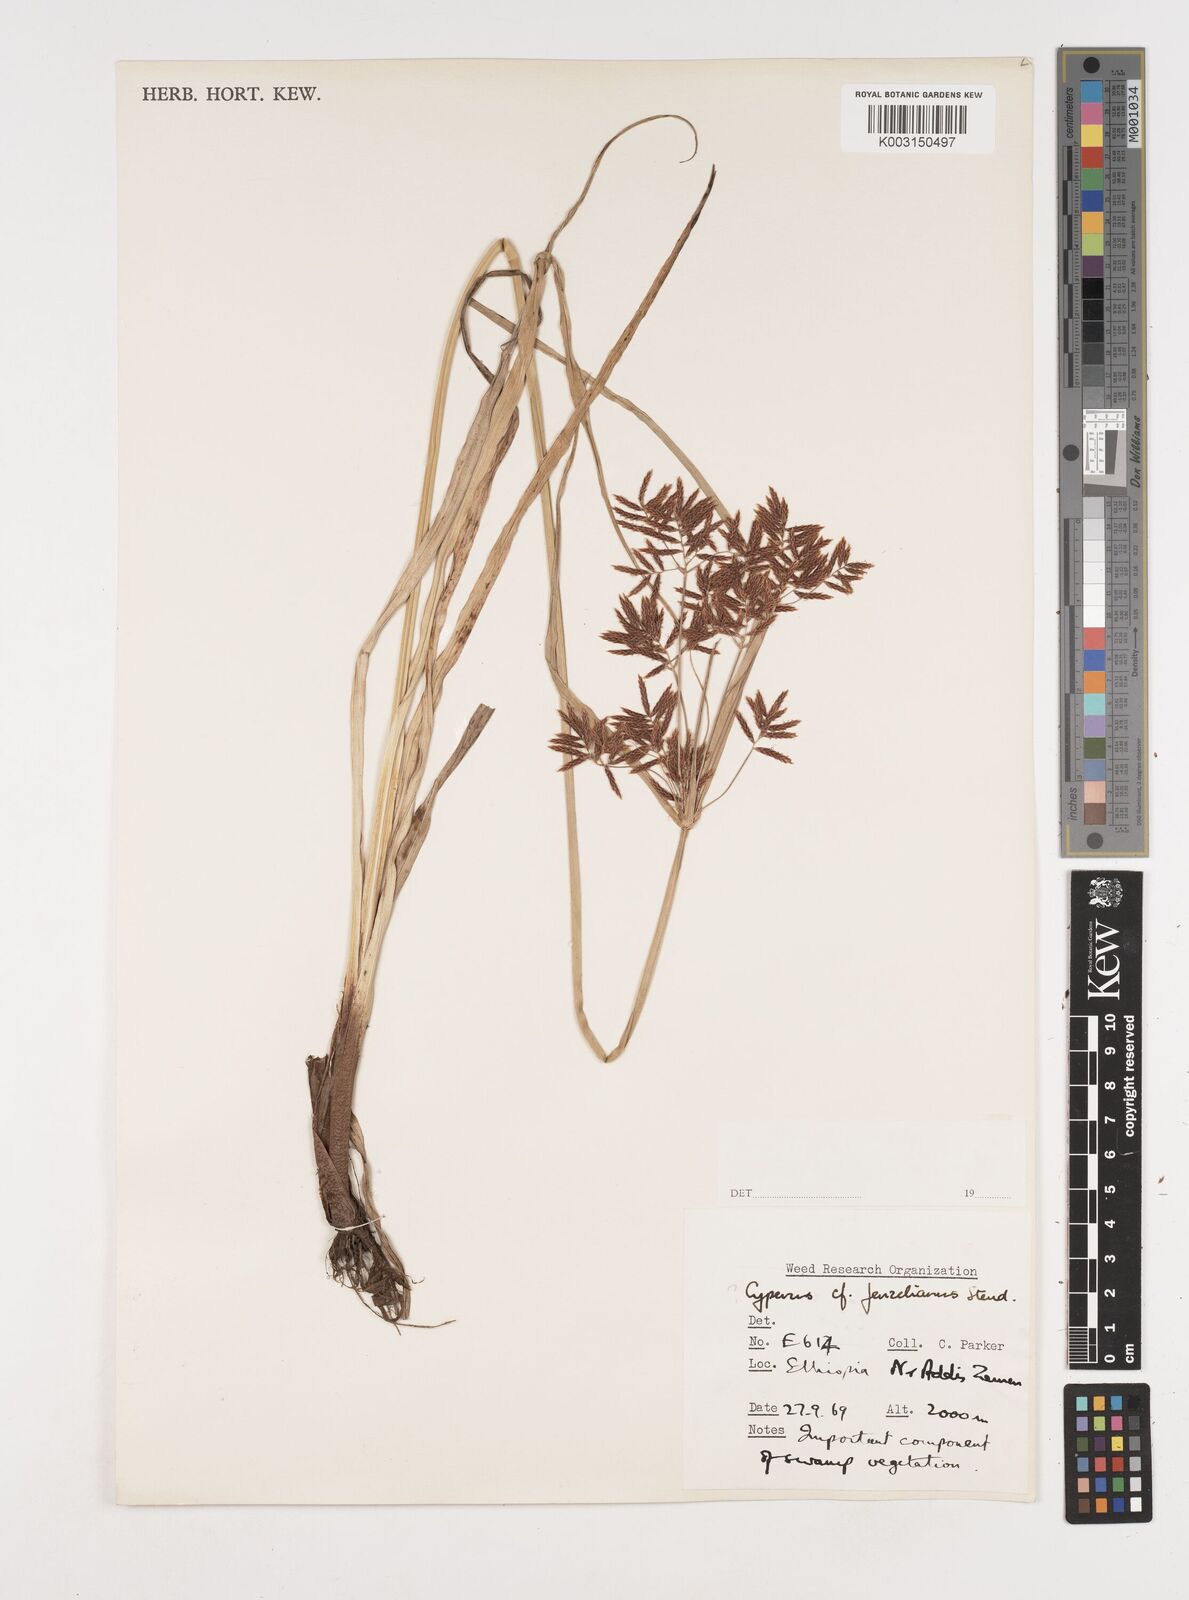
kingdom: Plantae
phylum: Tracheophyta
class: Liliopsida
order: Poales
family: Cyperaceae
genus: Cyperus
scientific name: Cyperus rotundus
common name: Nutgrass
